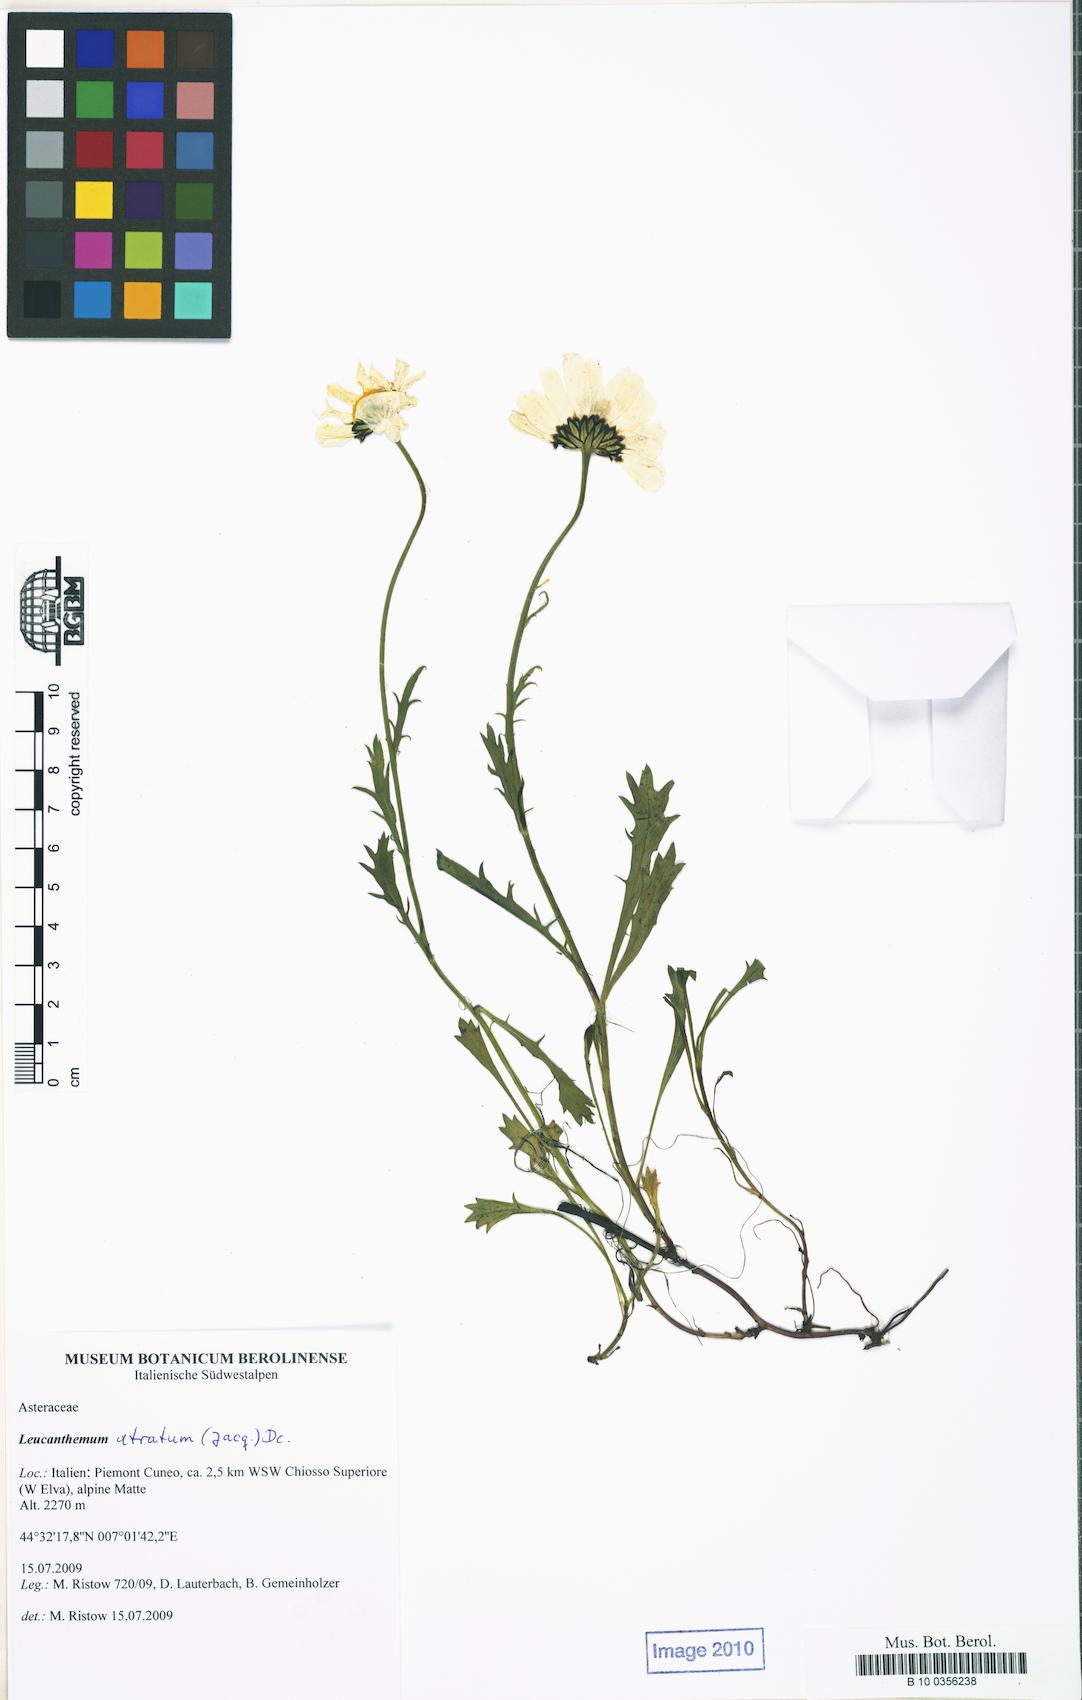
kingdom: Plantae
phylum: Tracheophyta
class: Magnoliopsida
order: Asterales
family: Asteraceae
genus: Leucanthemum
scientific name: Leucanthemum coronopifolium
